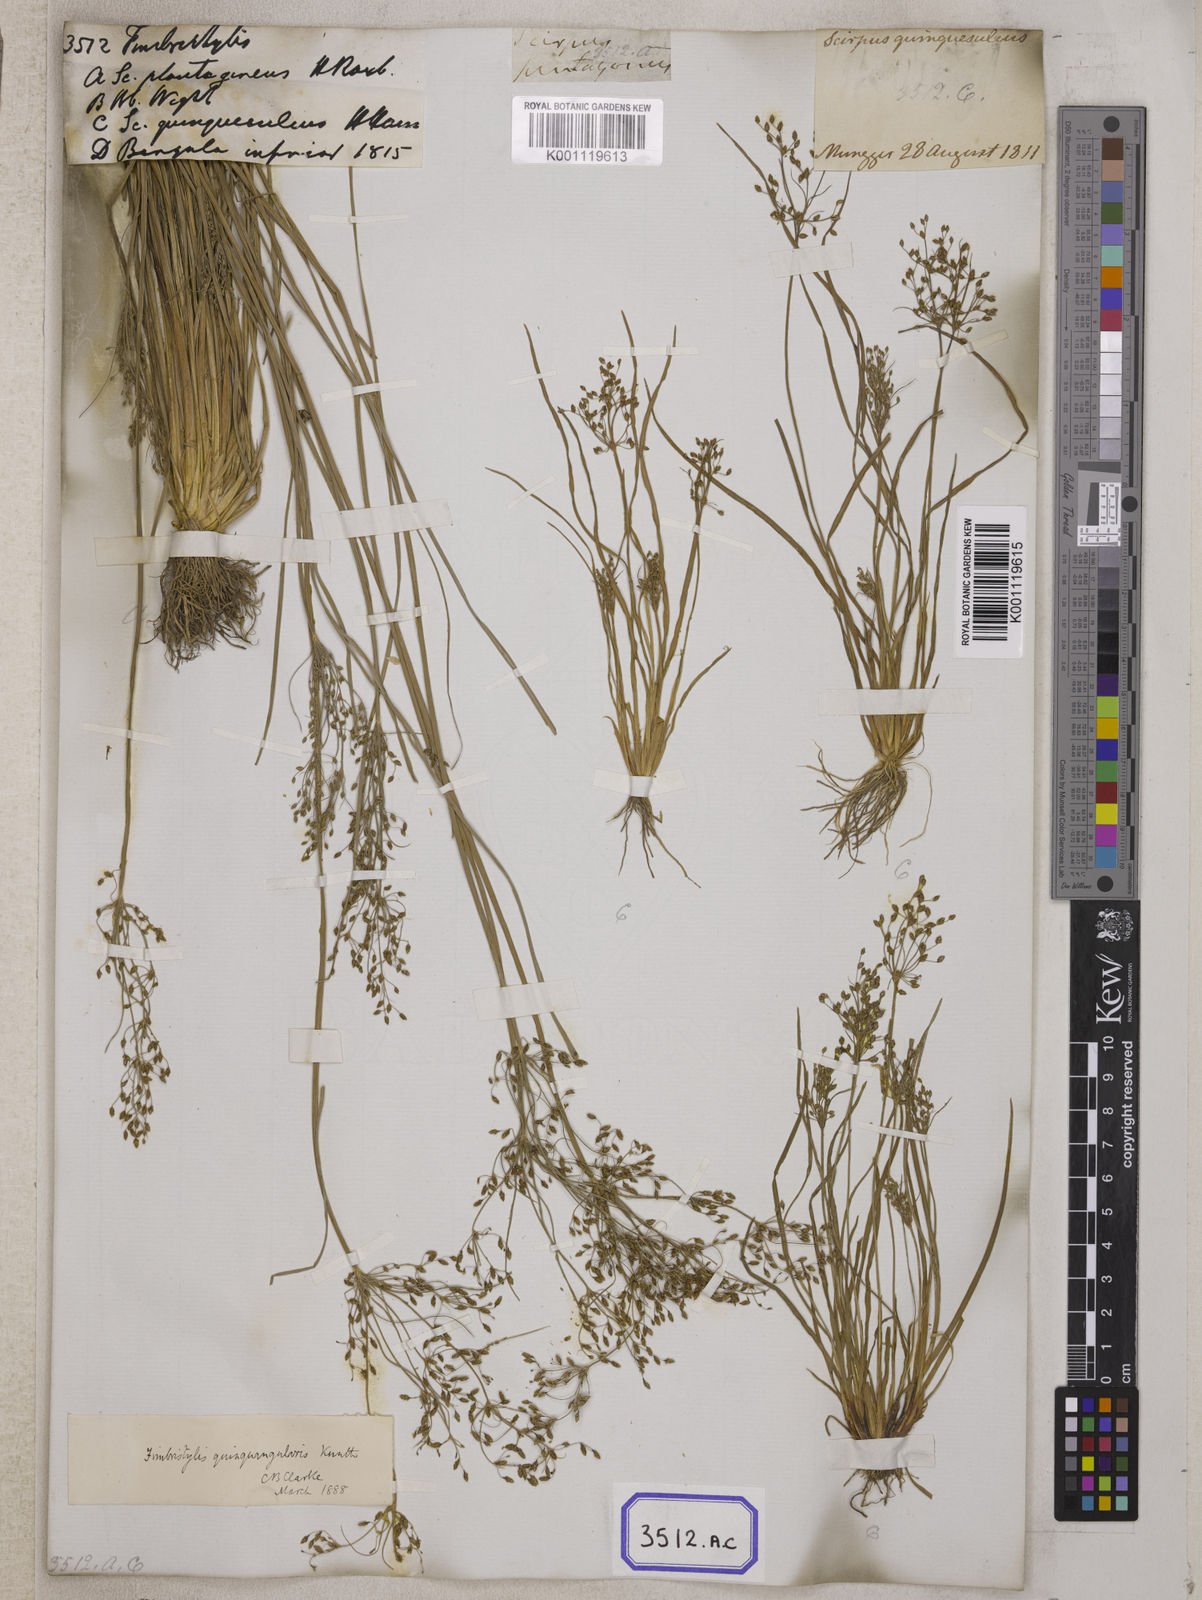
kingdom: Plantae
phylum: Tracheophyta
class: Liliopsida
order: Poales
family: Cyperaceae
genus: Fimbristylis
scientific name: Fimbristylis
